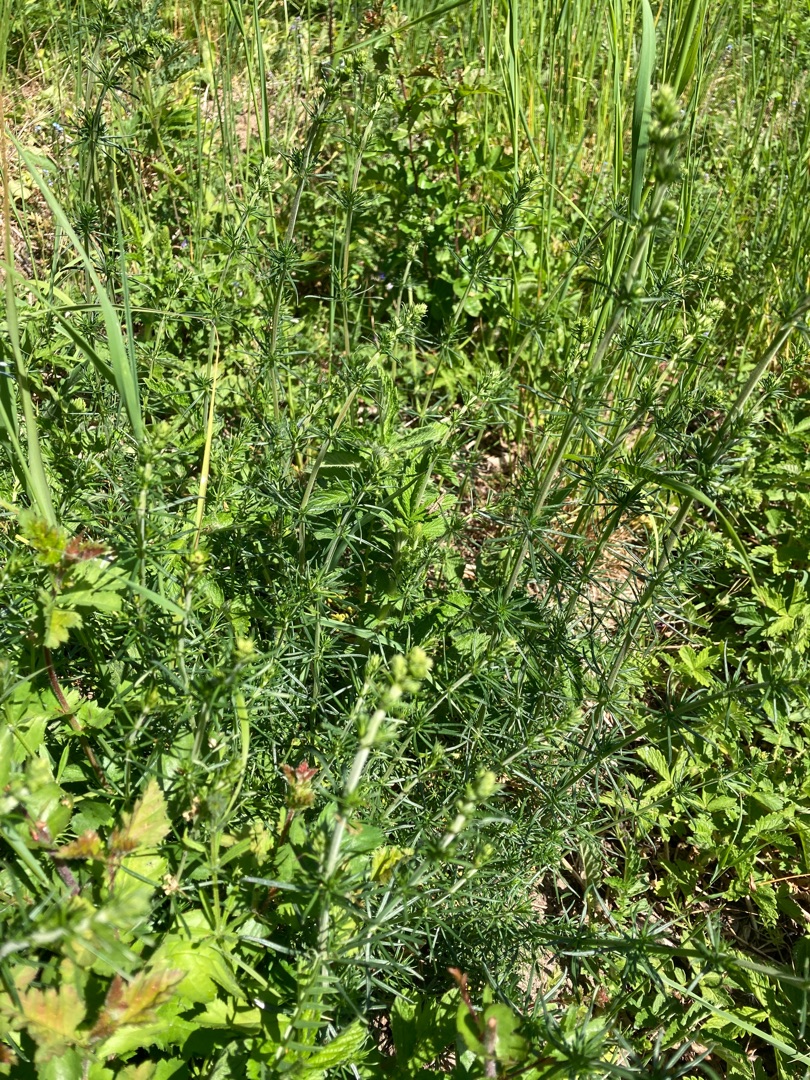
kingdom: Plantae
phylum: Tracheophyta
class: Magnoliopsida
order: Gentianales
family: Rubiaceae
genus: Galium
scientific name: Galium verum
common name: Gul snerre
